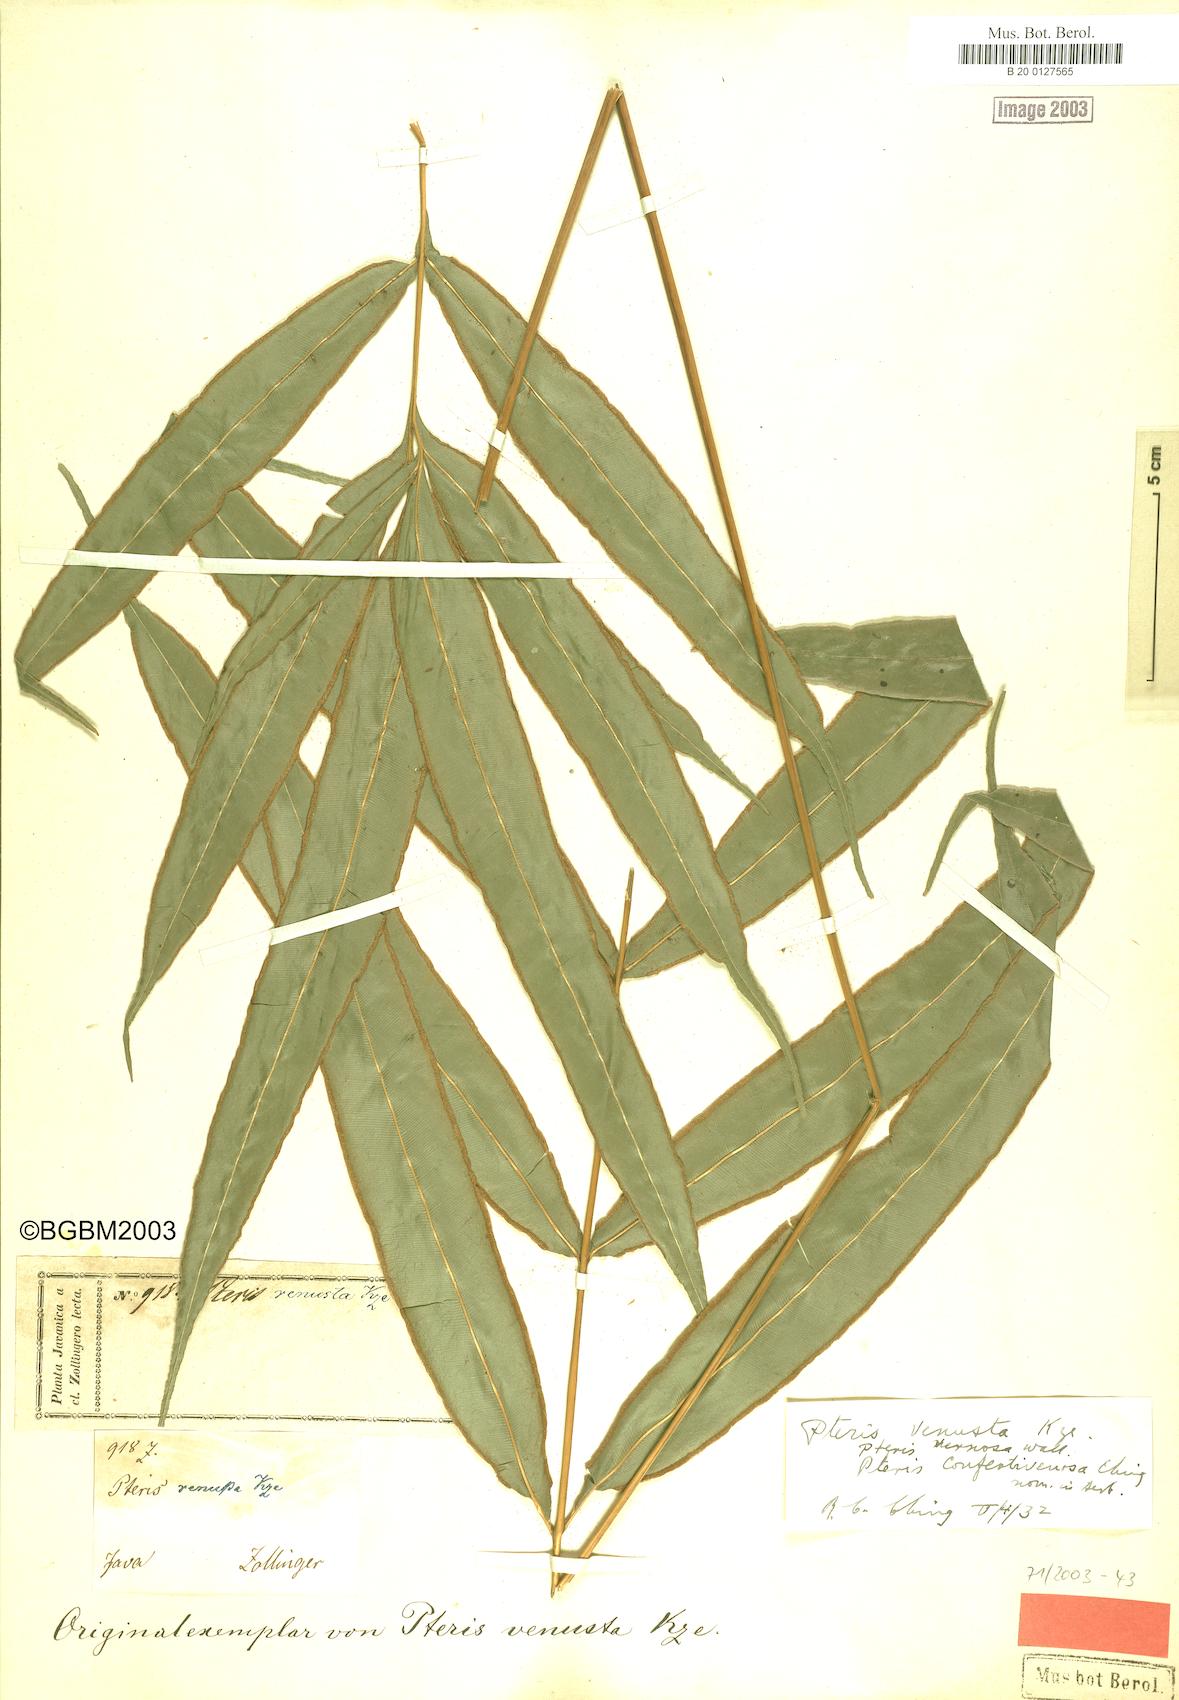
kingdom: Plantae
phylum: Tracheophyta
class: Polypodiopsida
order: Polypodiales
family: Pteridaceae
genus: Pteris
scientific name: Pteris venusta
